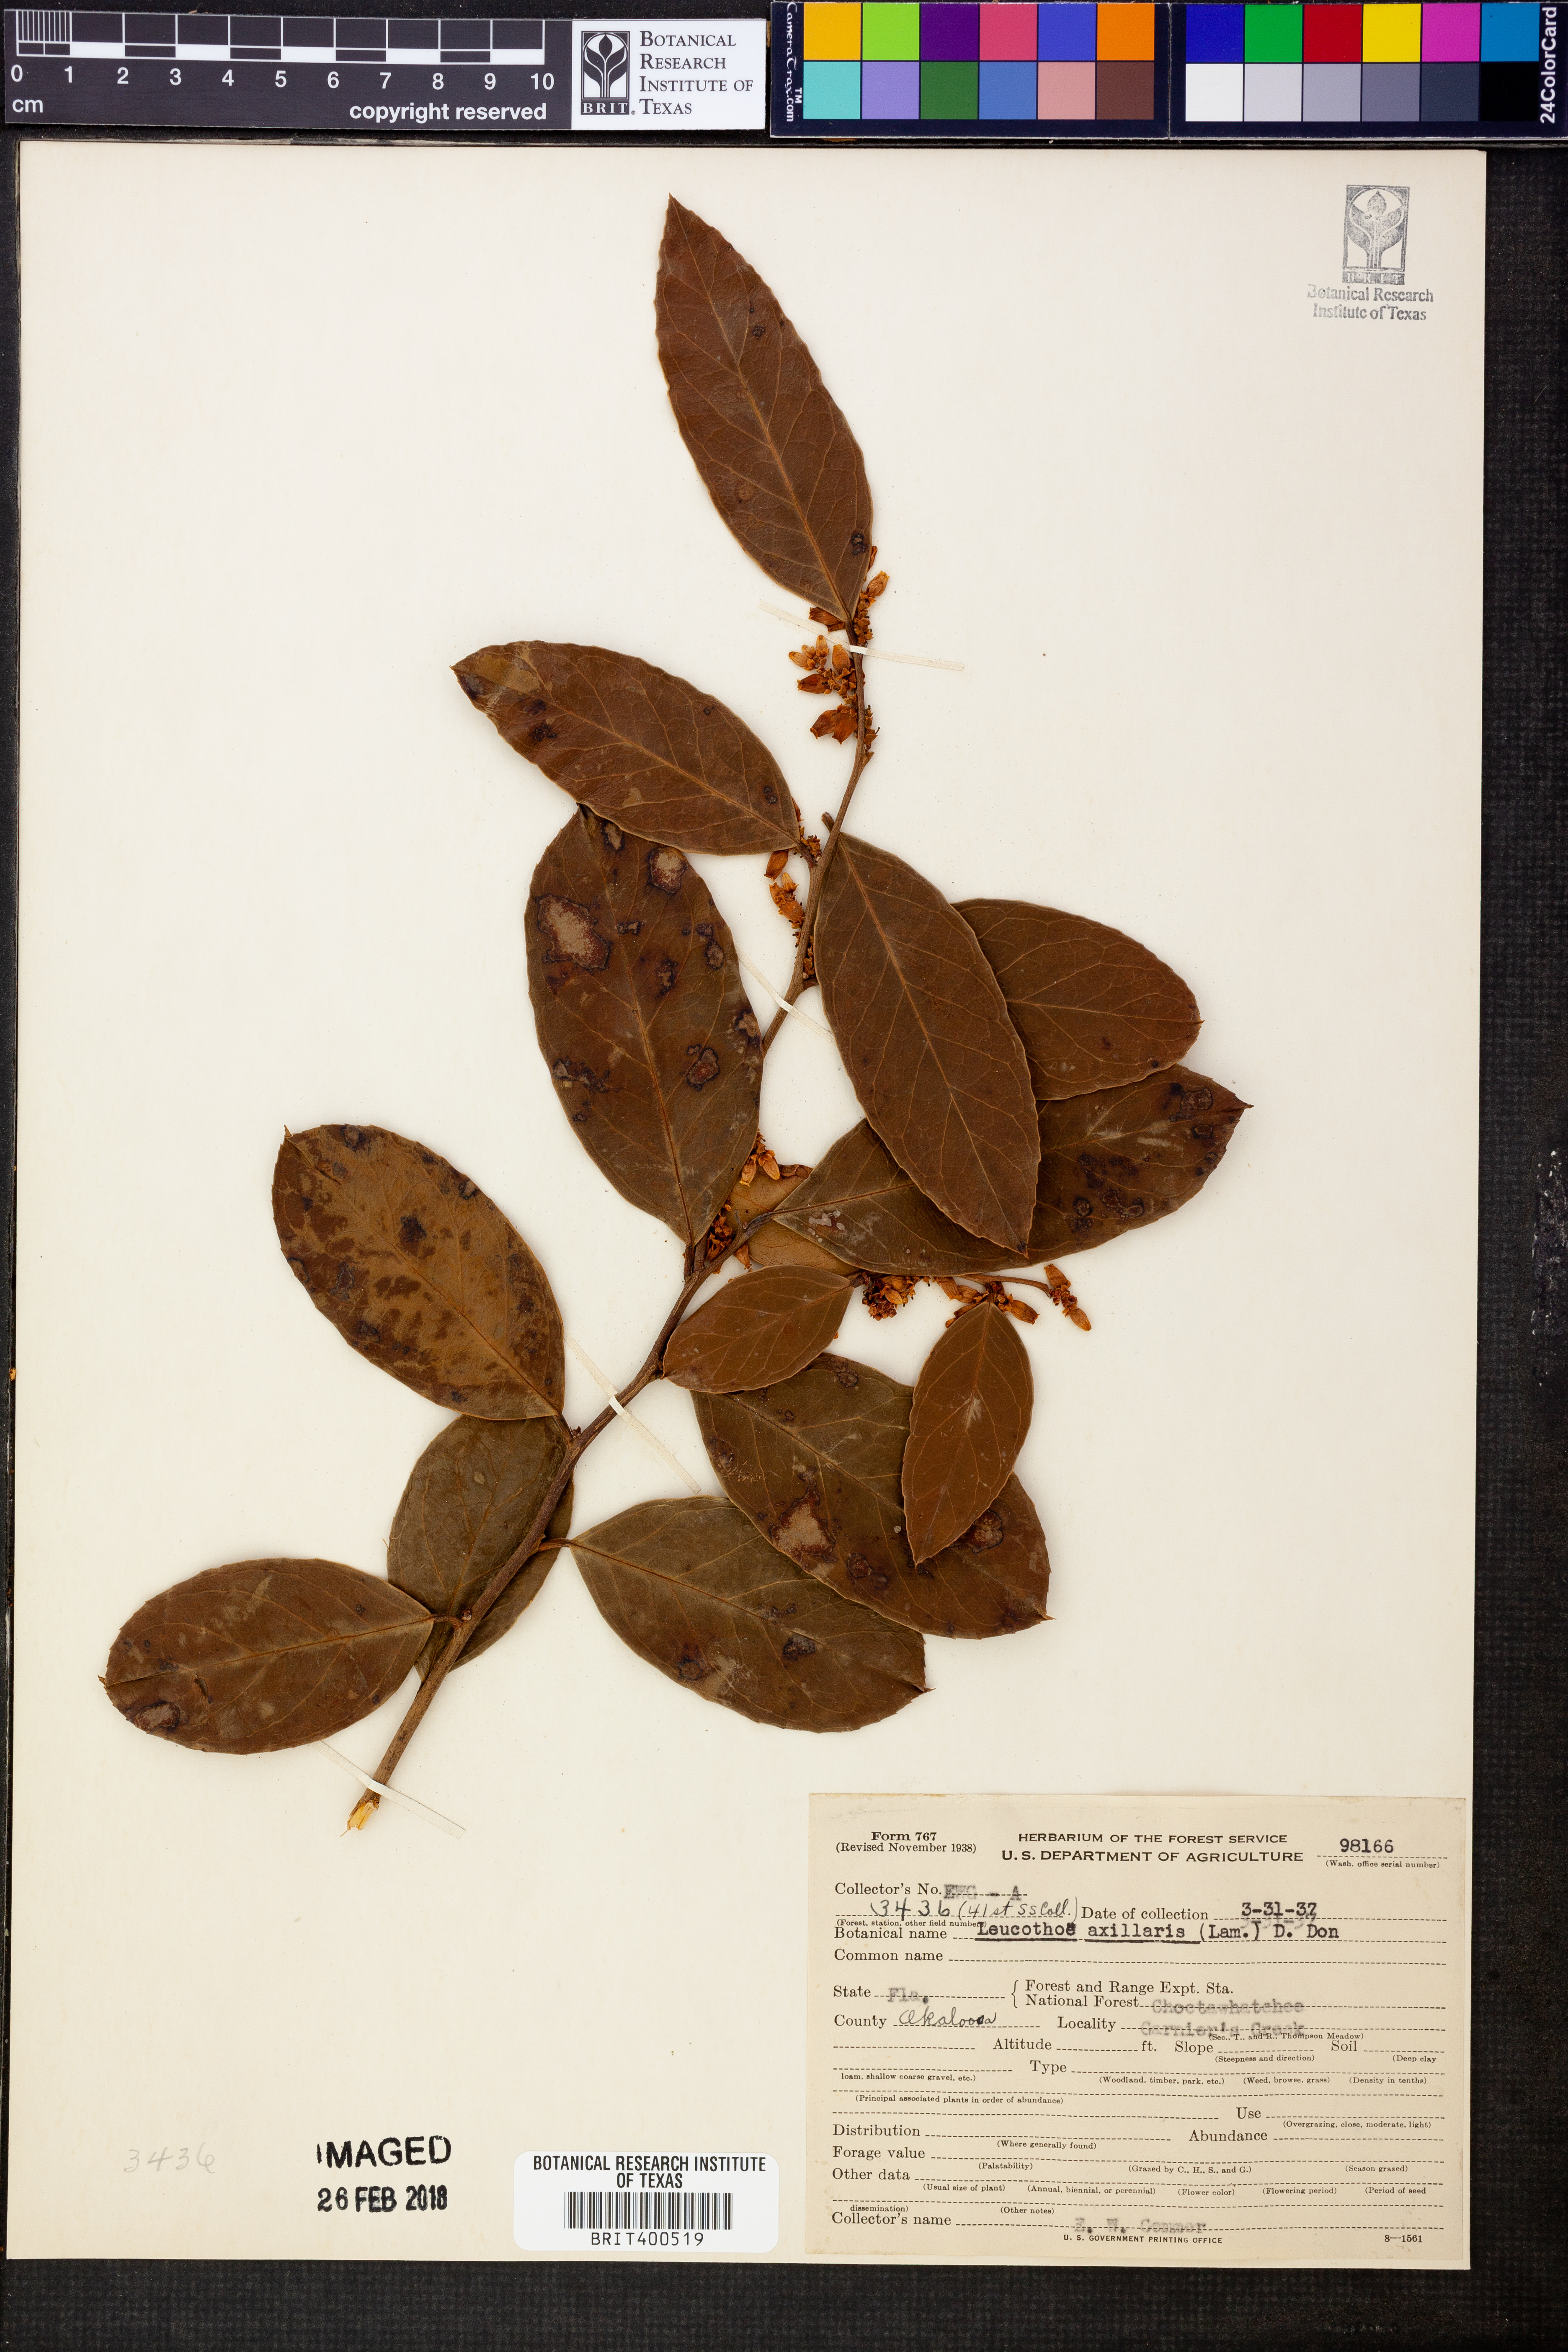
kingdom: Plantae
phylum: Tracheophyta
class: Magnoliopsida
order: Ericales
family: Ericaceae
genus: Leucothoe
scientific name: Leucothoe axillaris
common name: Leucothoe
